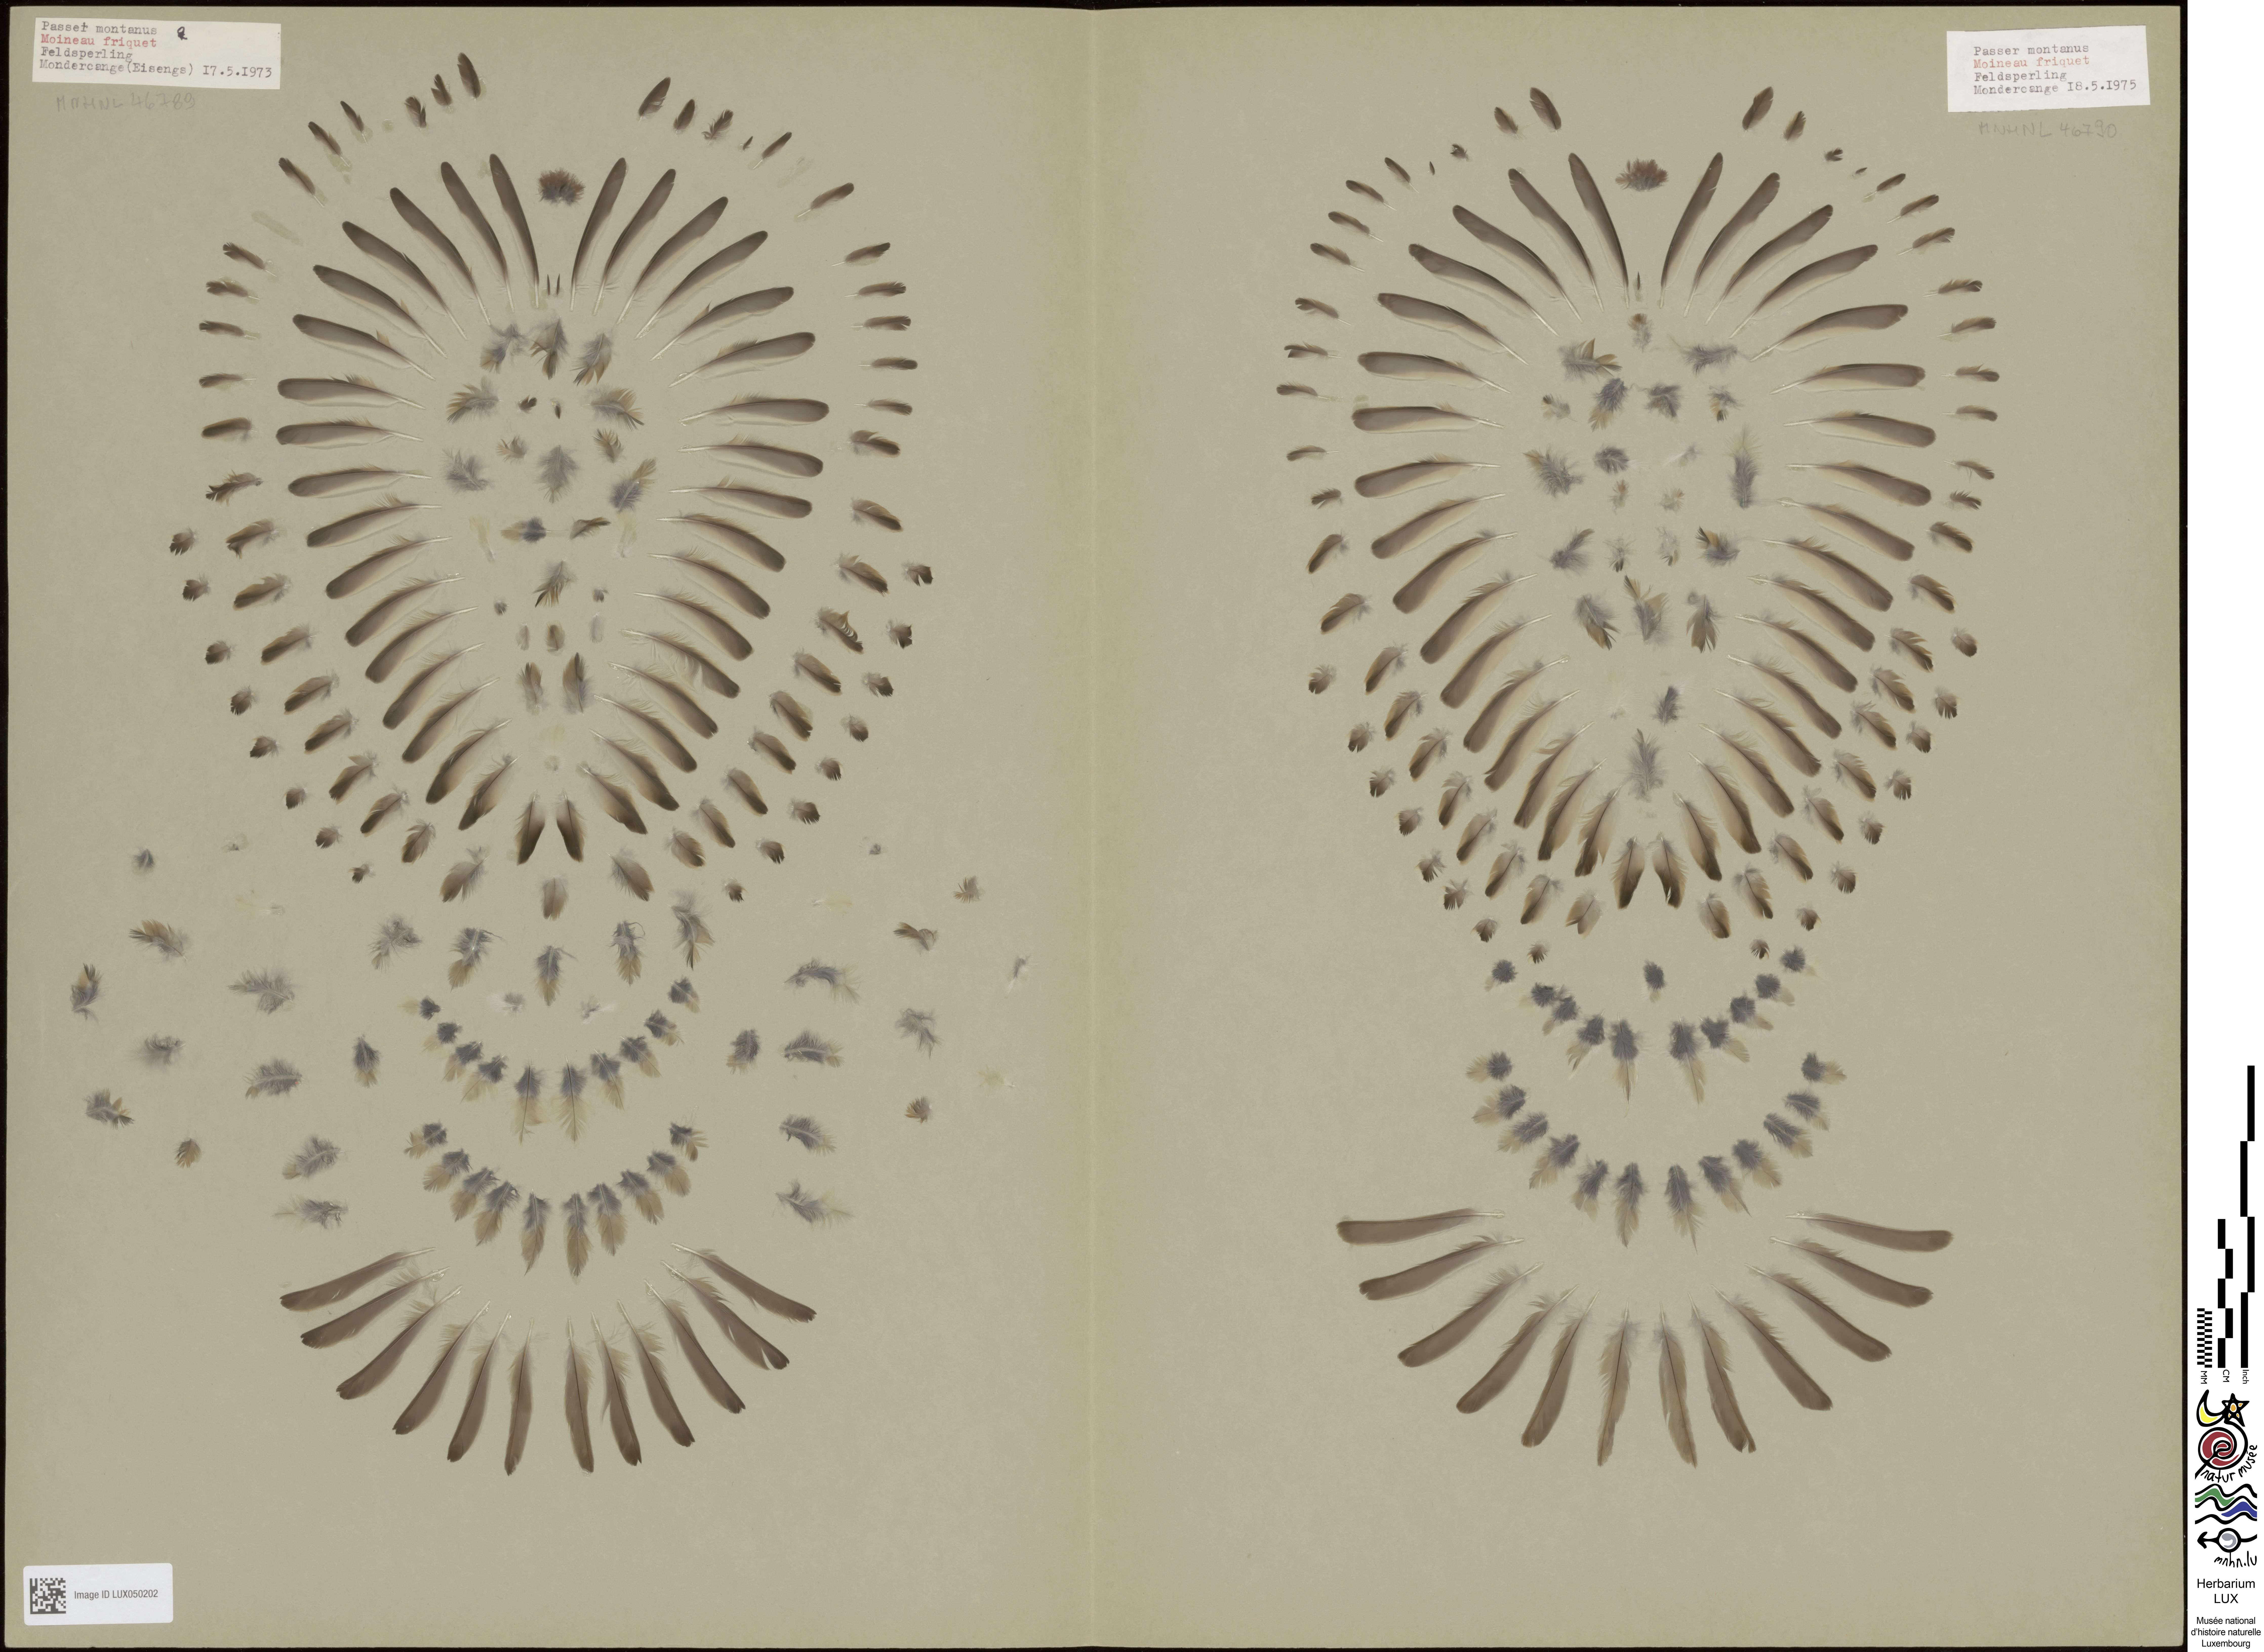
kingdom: Animalia
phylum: Chordata
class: Aves
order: Passeriformes
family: Passeridae
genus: Passer
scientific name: Passer montanus
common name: Eurasian tree sparrow
